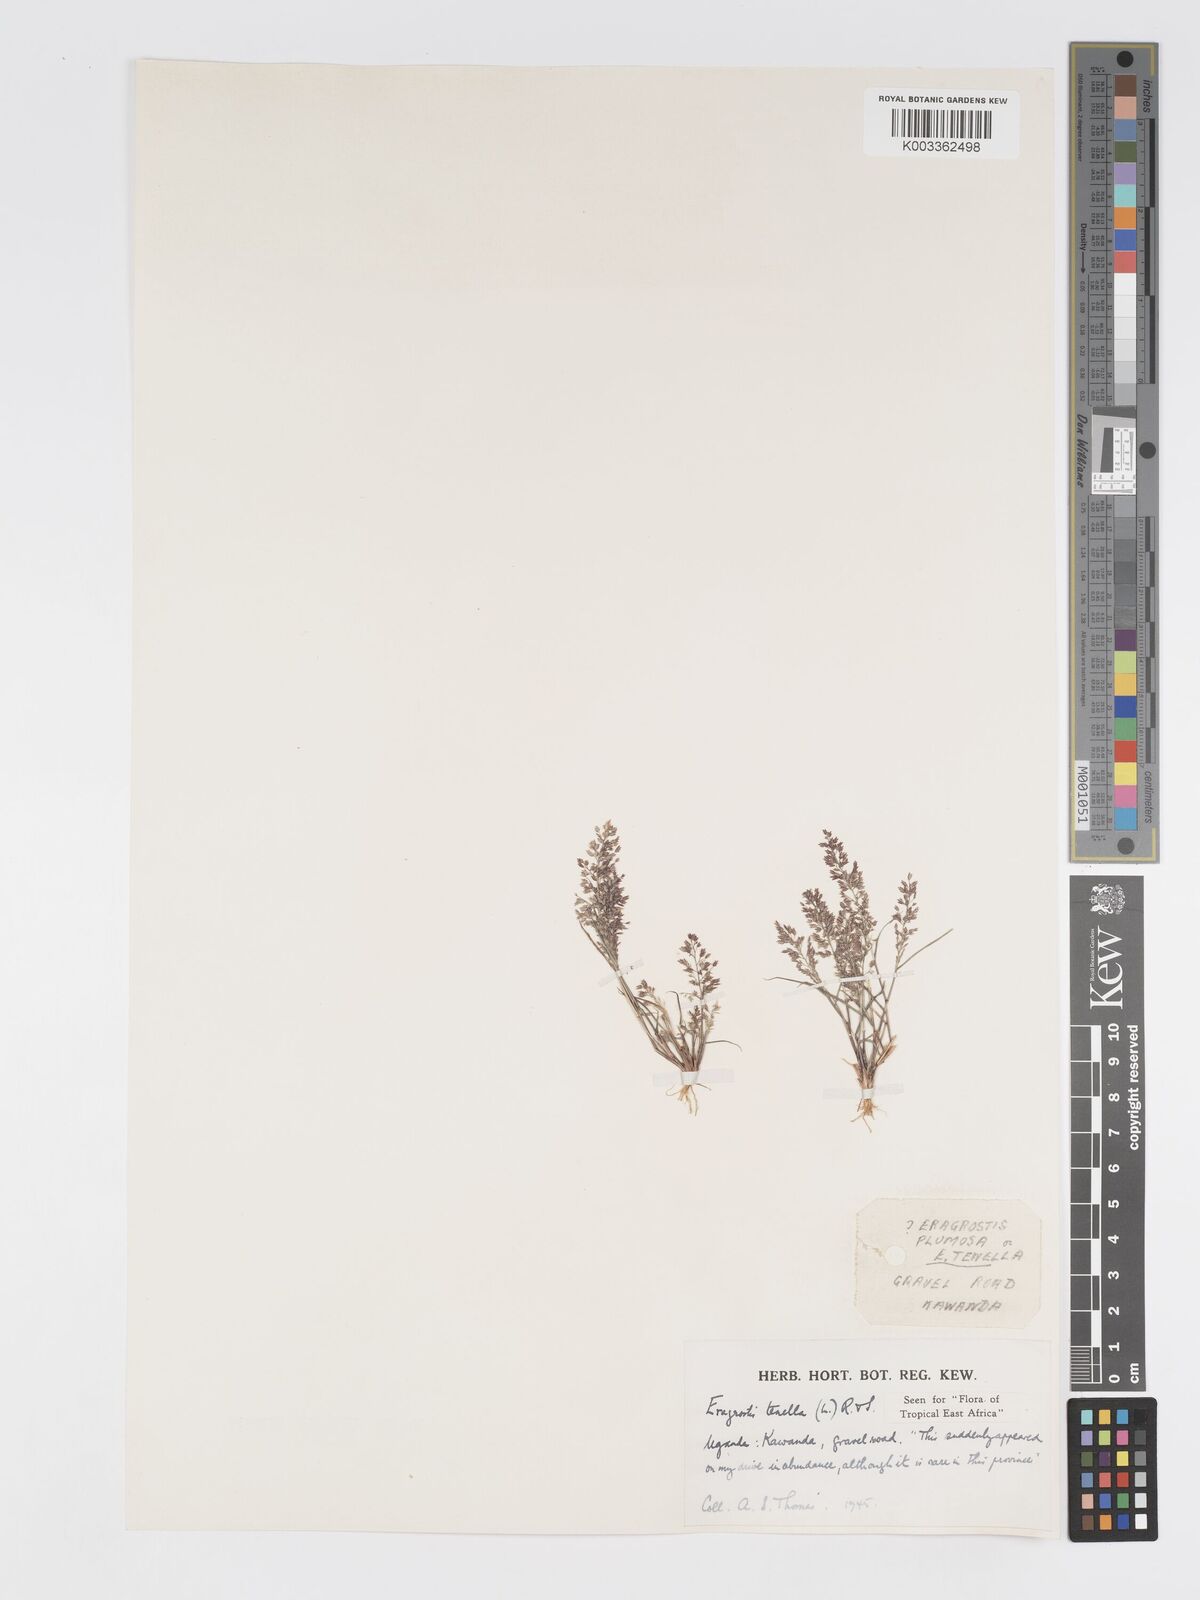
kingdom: Plantae
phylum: Tracheophyta
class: Liliopsida
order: Poales
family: Poaceae
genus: Eragrostis
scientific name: Eragrostis tenella
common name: Japanese lovegrass
